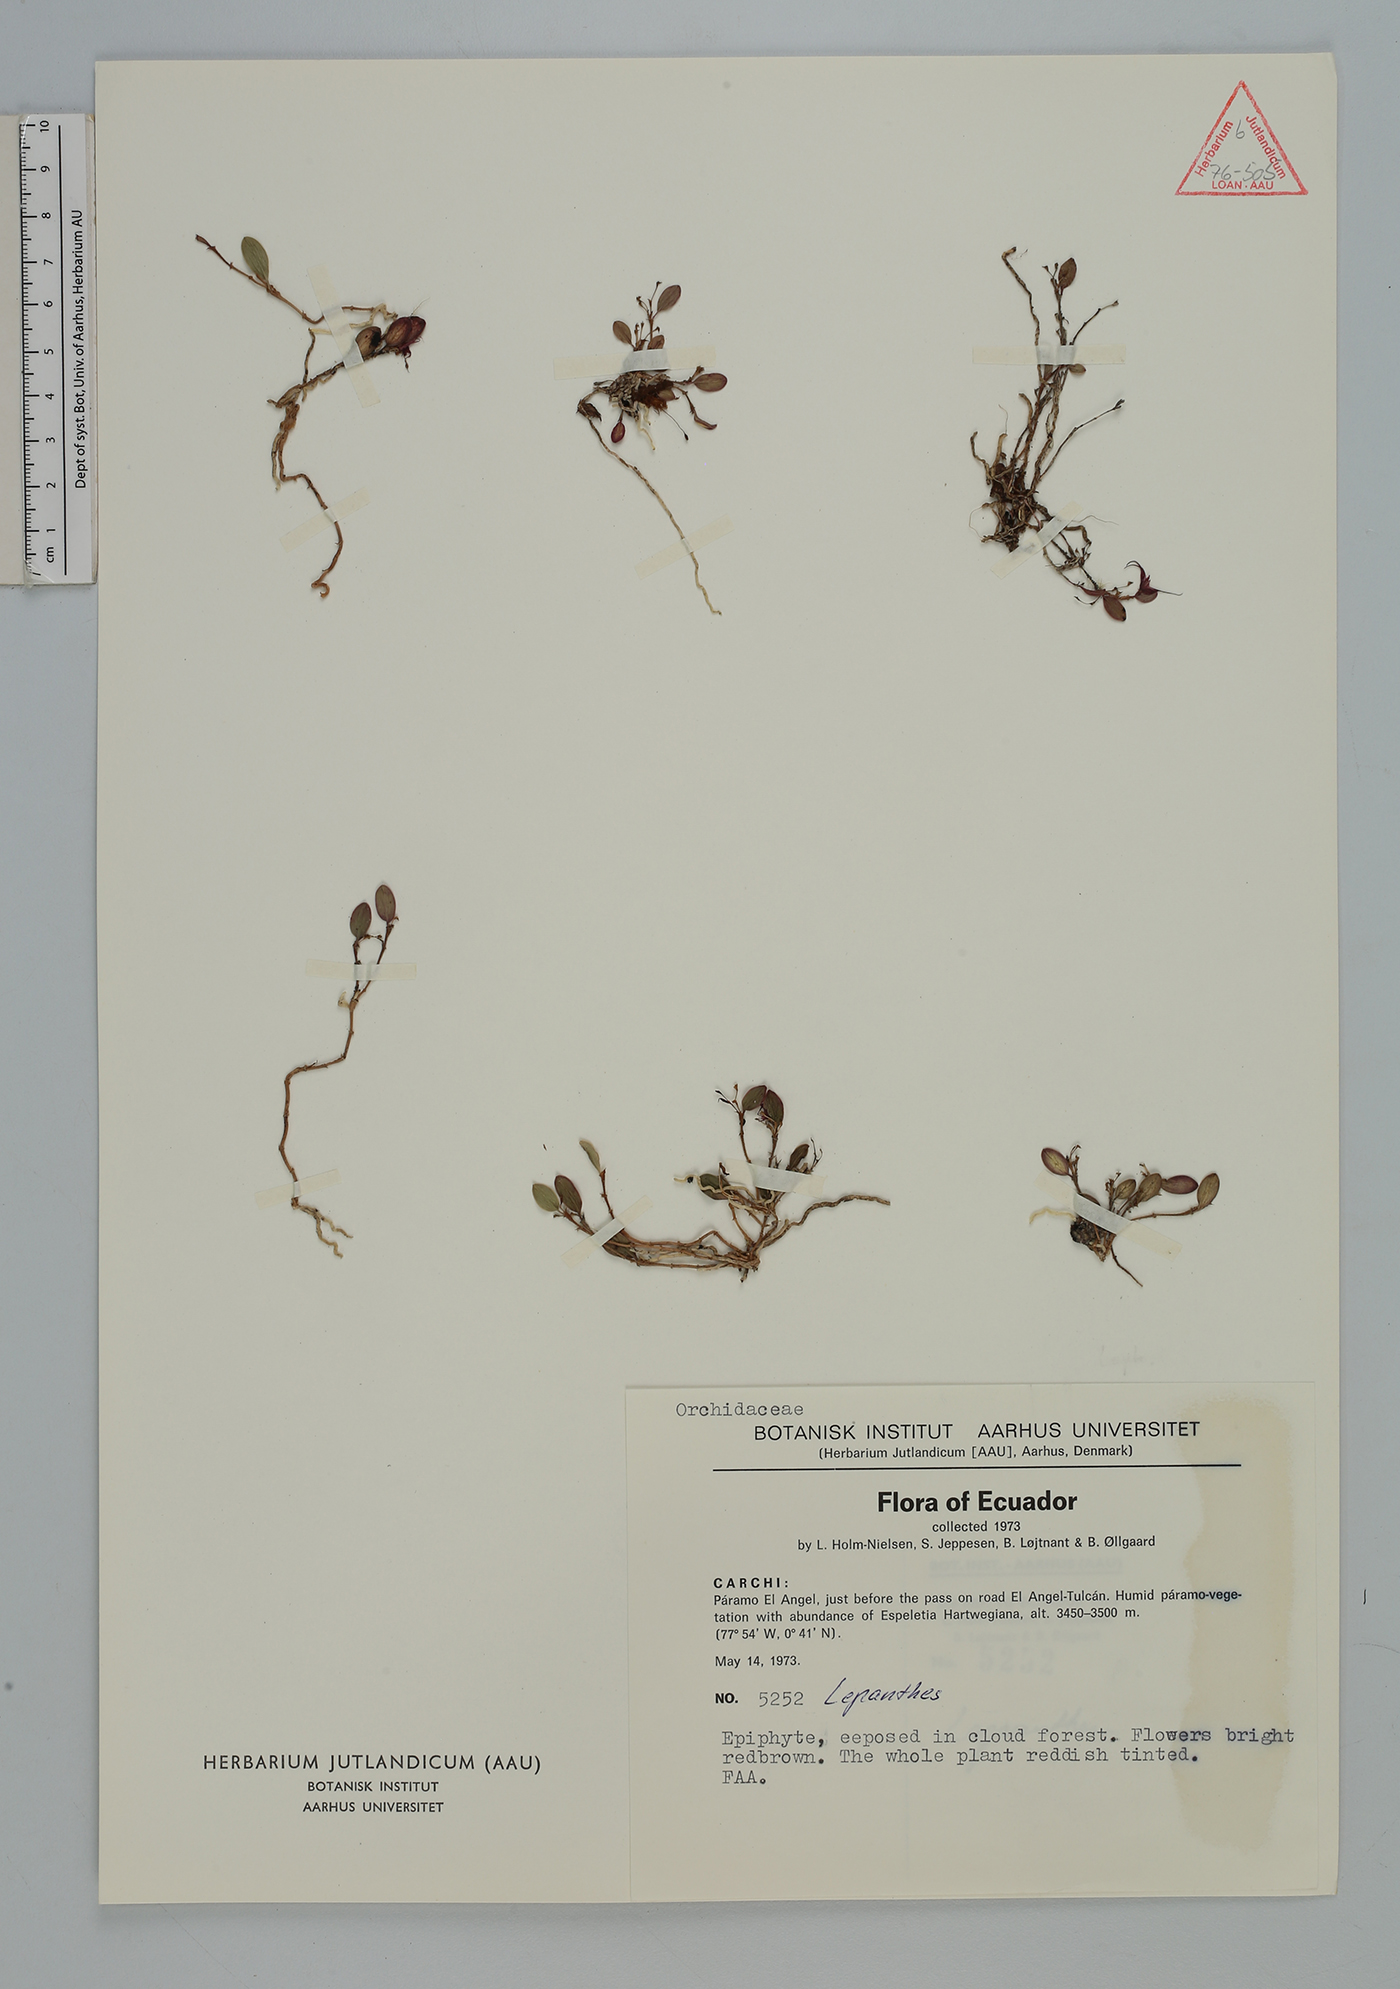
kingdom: Plantae
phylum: Tracheophyta
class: Liliopsida
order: Asparagales
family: Orchidaceae
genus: Lepanthes
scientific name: Lepanthes
